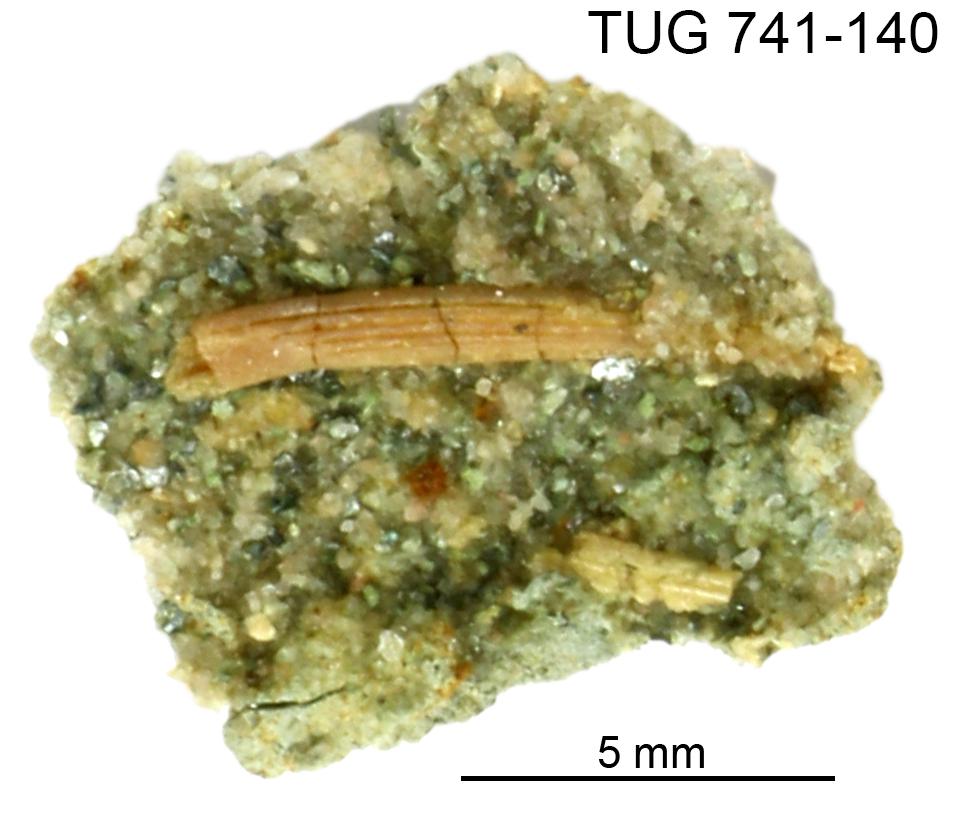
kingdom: Animalia
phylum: Chordata
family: Acanthodidae
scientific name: Acanthodidae
